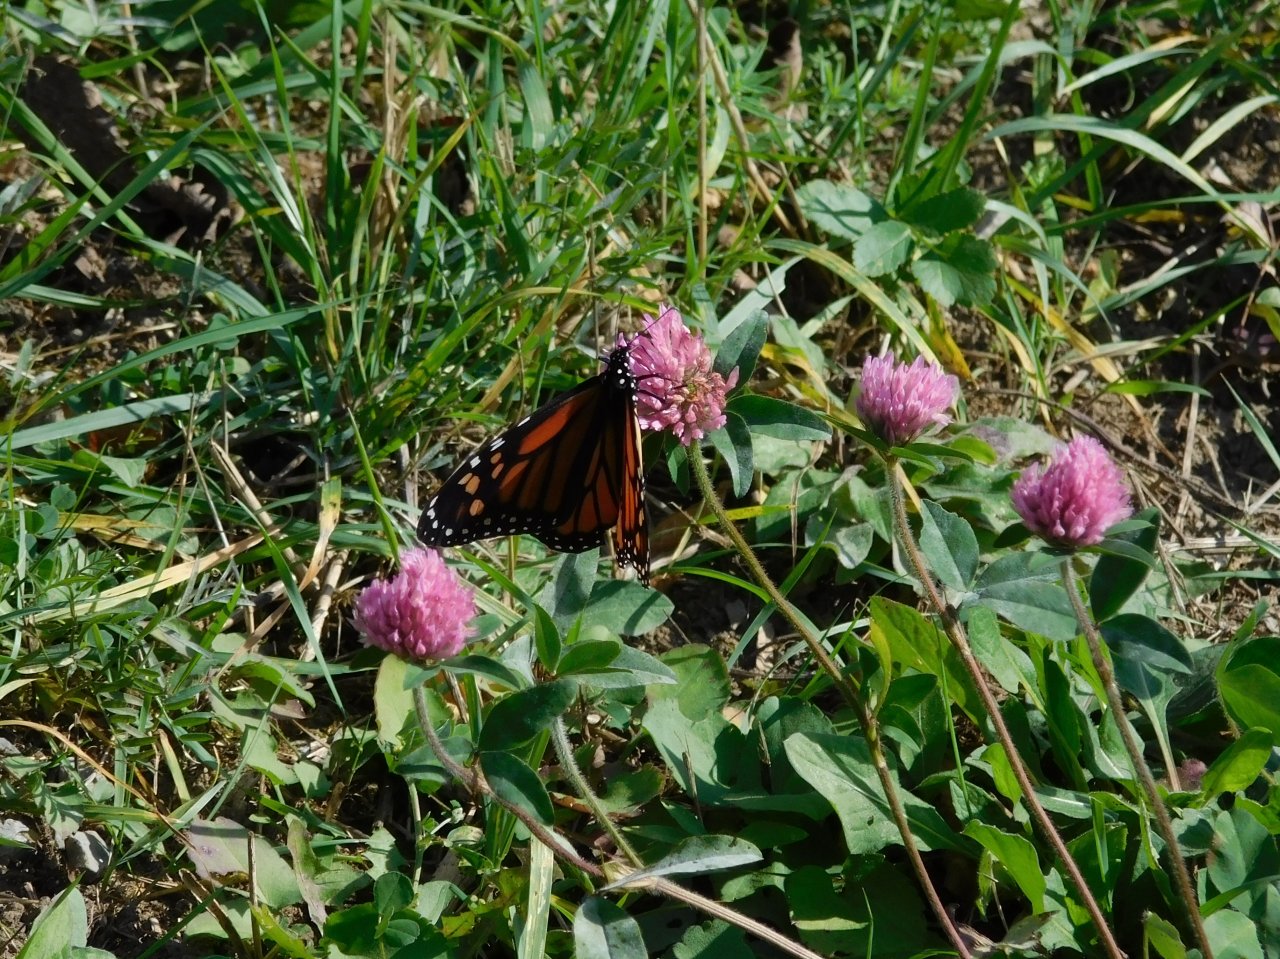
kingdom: Animalia
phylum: Arthropoda
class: Insecta
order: Lepidoptera
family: Nymphalidae
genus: Danaus
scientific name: Danaus plexippus
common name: Monarch
